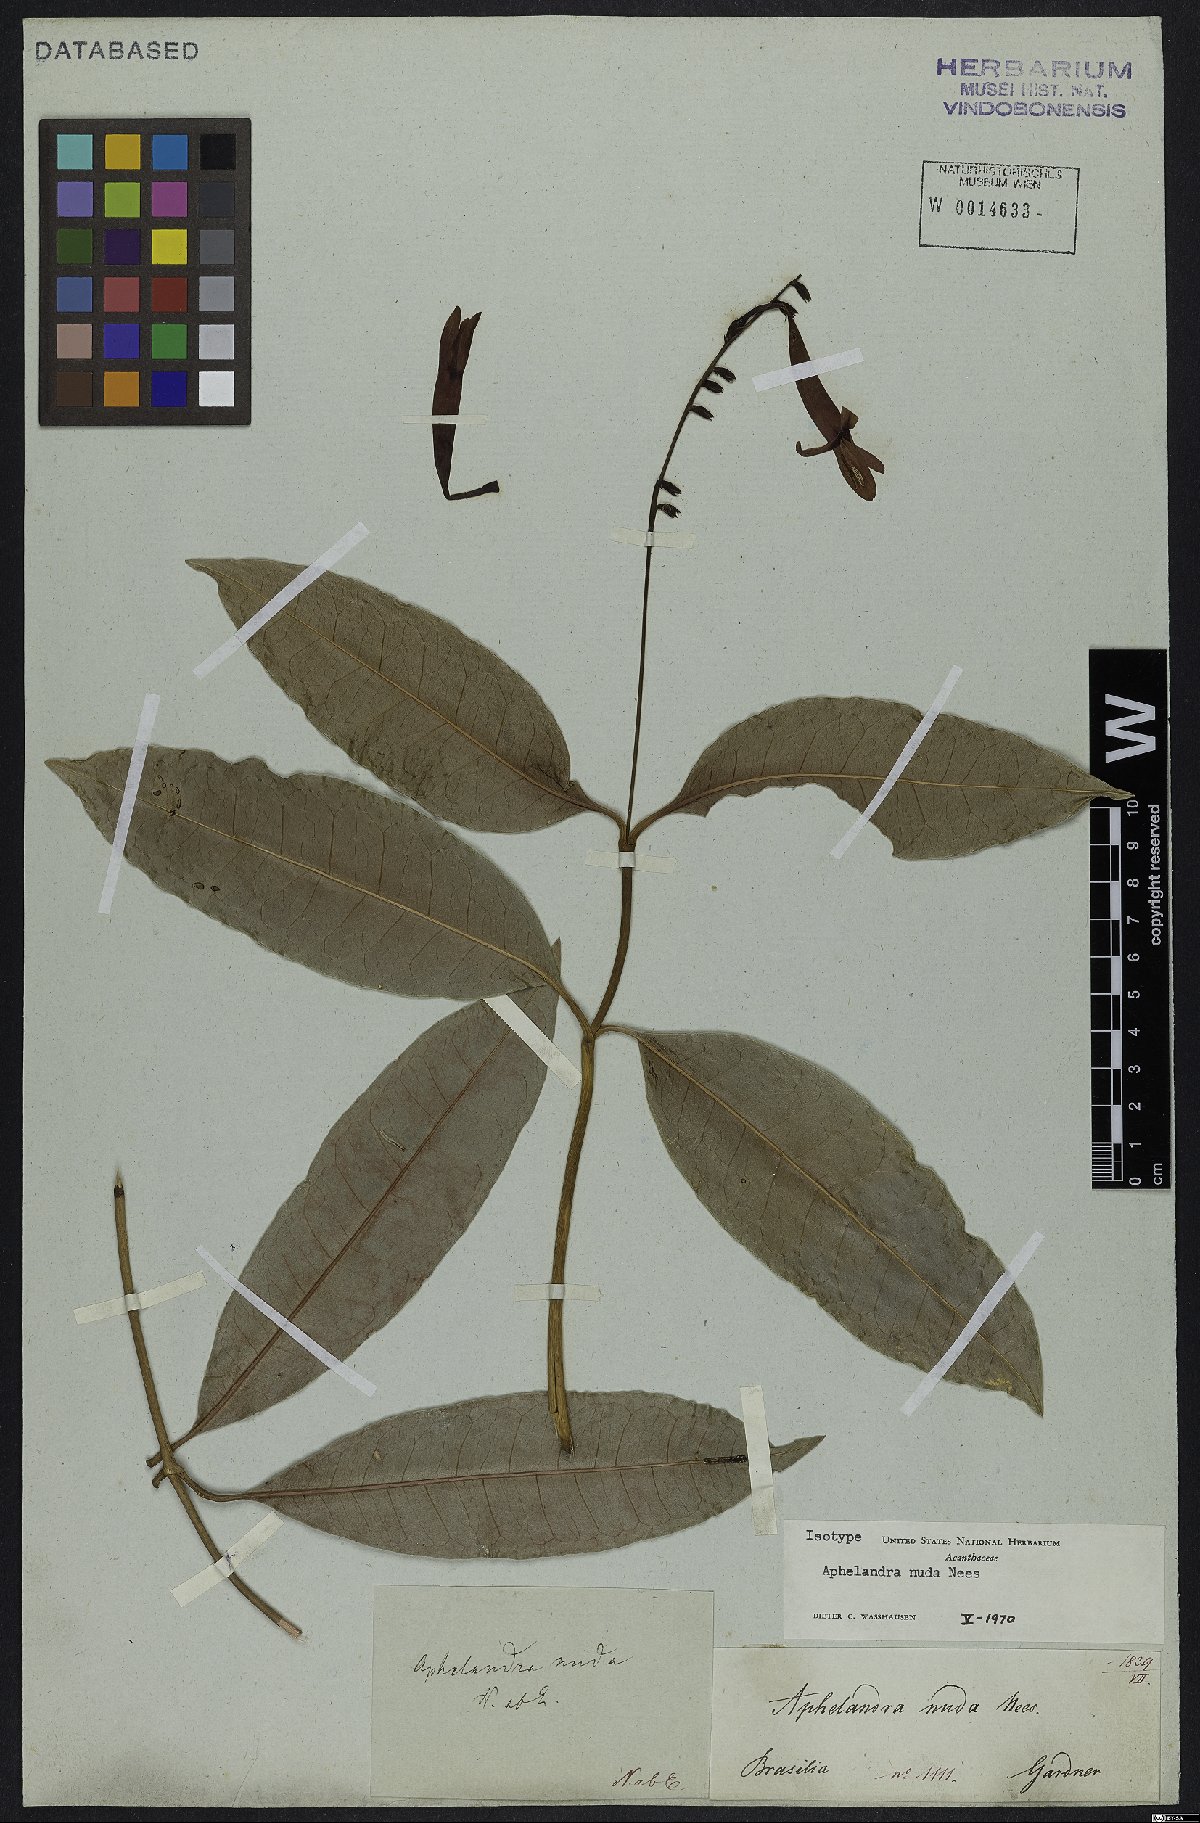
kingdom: Plantae
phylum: Tracheophyta
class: Magnoliopsida
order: Lamiales
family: Acanthaceae
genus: Aphelandra
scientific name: Aphelandra nuda
